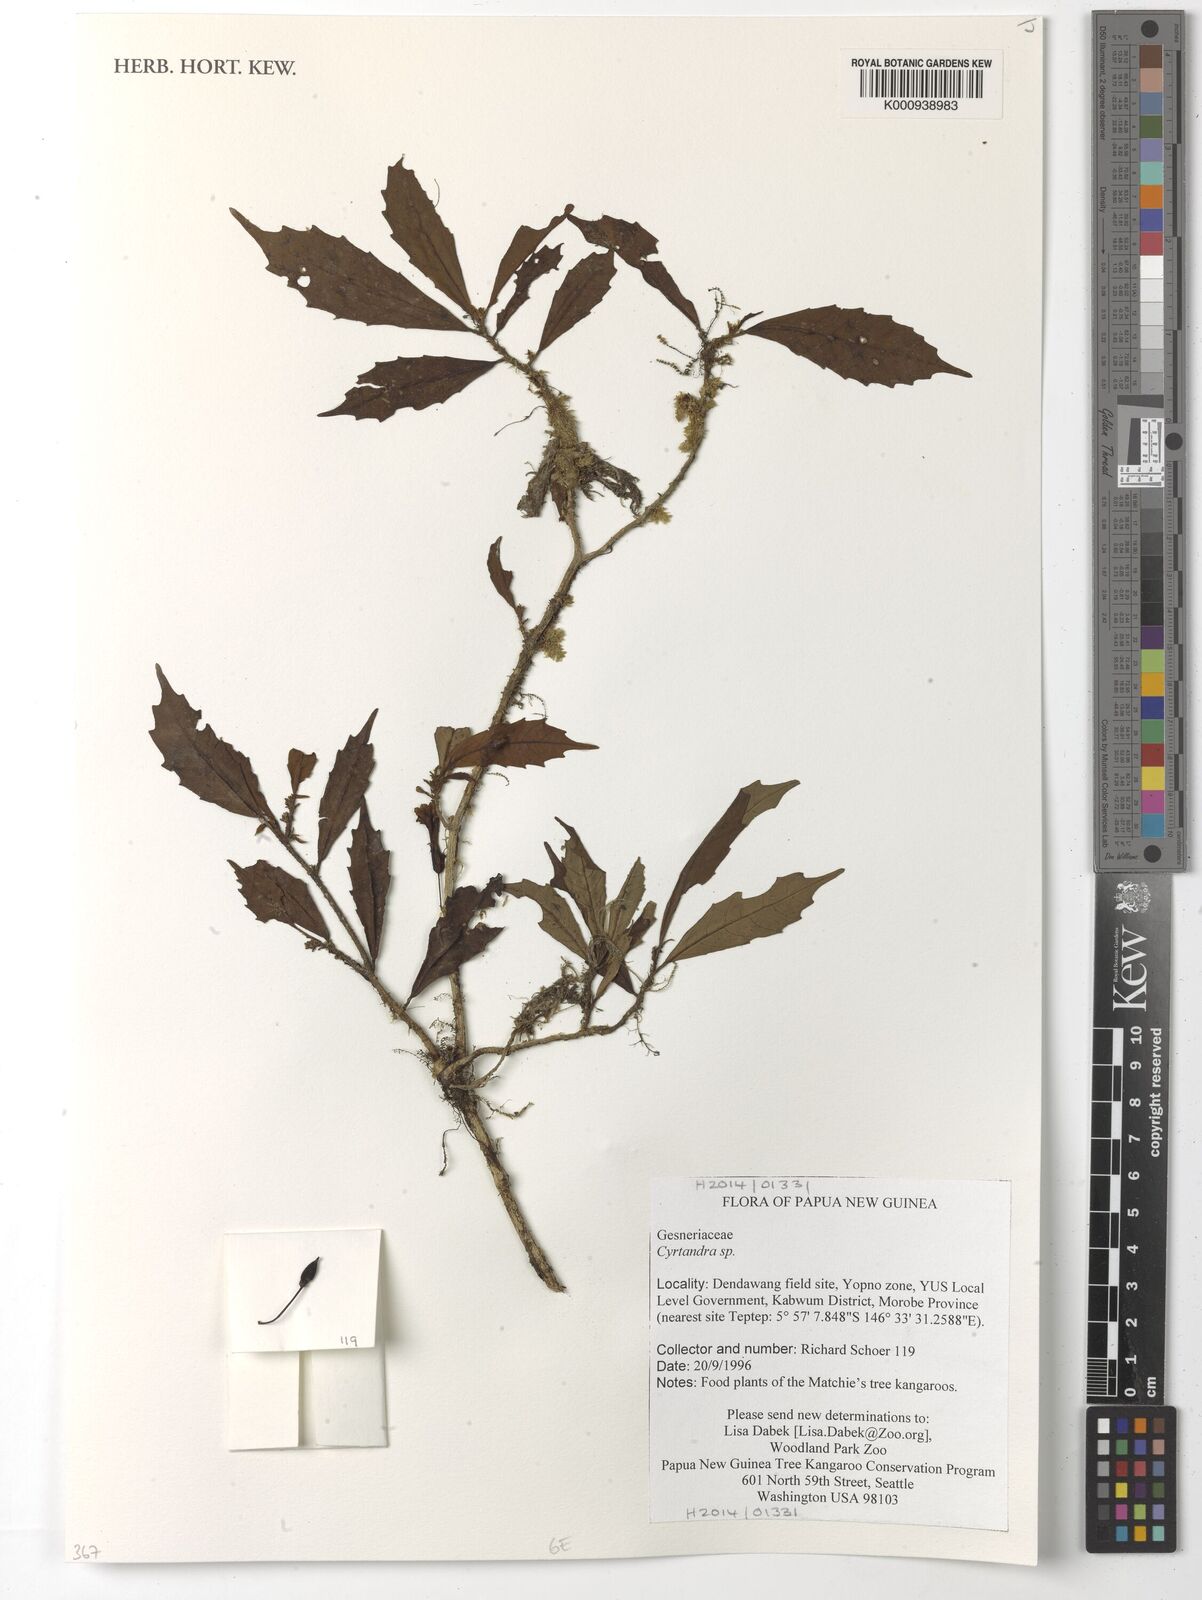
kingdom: Plantae
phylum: Tracheophyta
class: Magnoliopsida
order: Lamiales
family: Gesneriaceae
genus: Cyrtandra
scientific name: Cyrtandra
